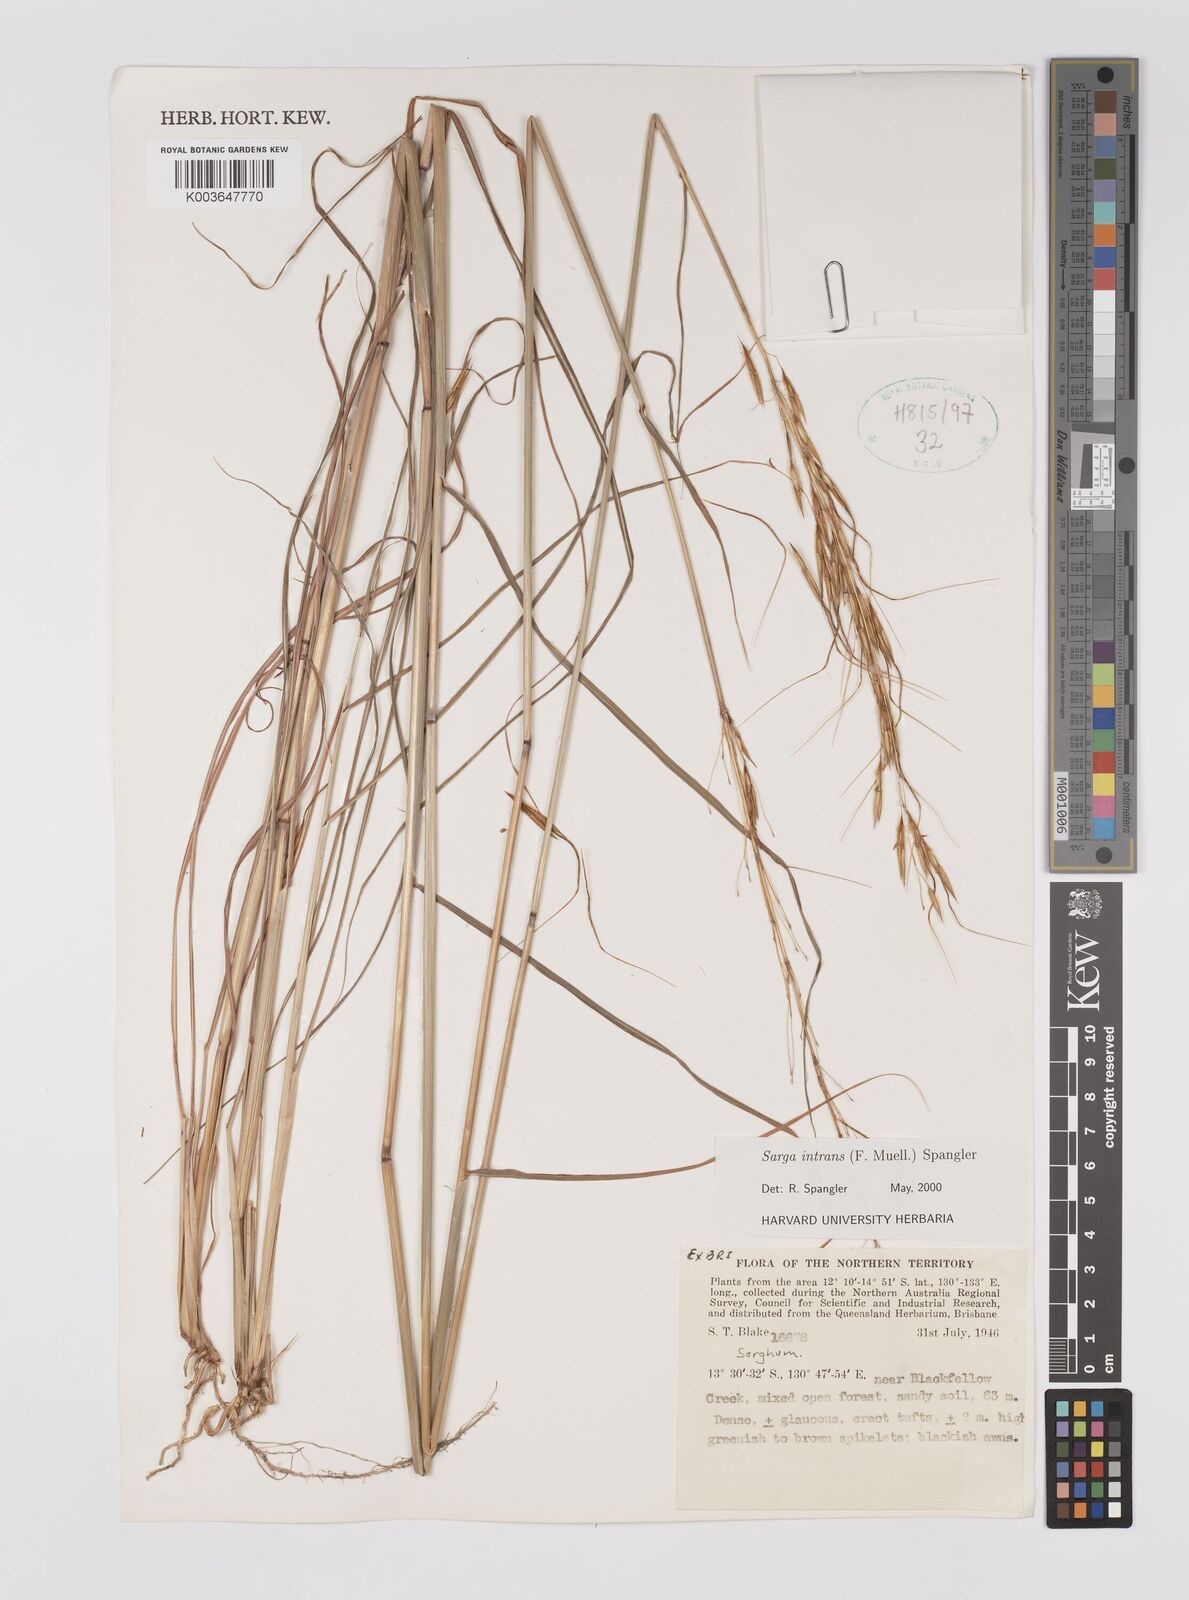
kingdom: Plantae
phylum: Tracheophyta
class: Liliopsida
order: Poales
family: Poaceae
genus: Sarga
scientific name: Sarga intrans
